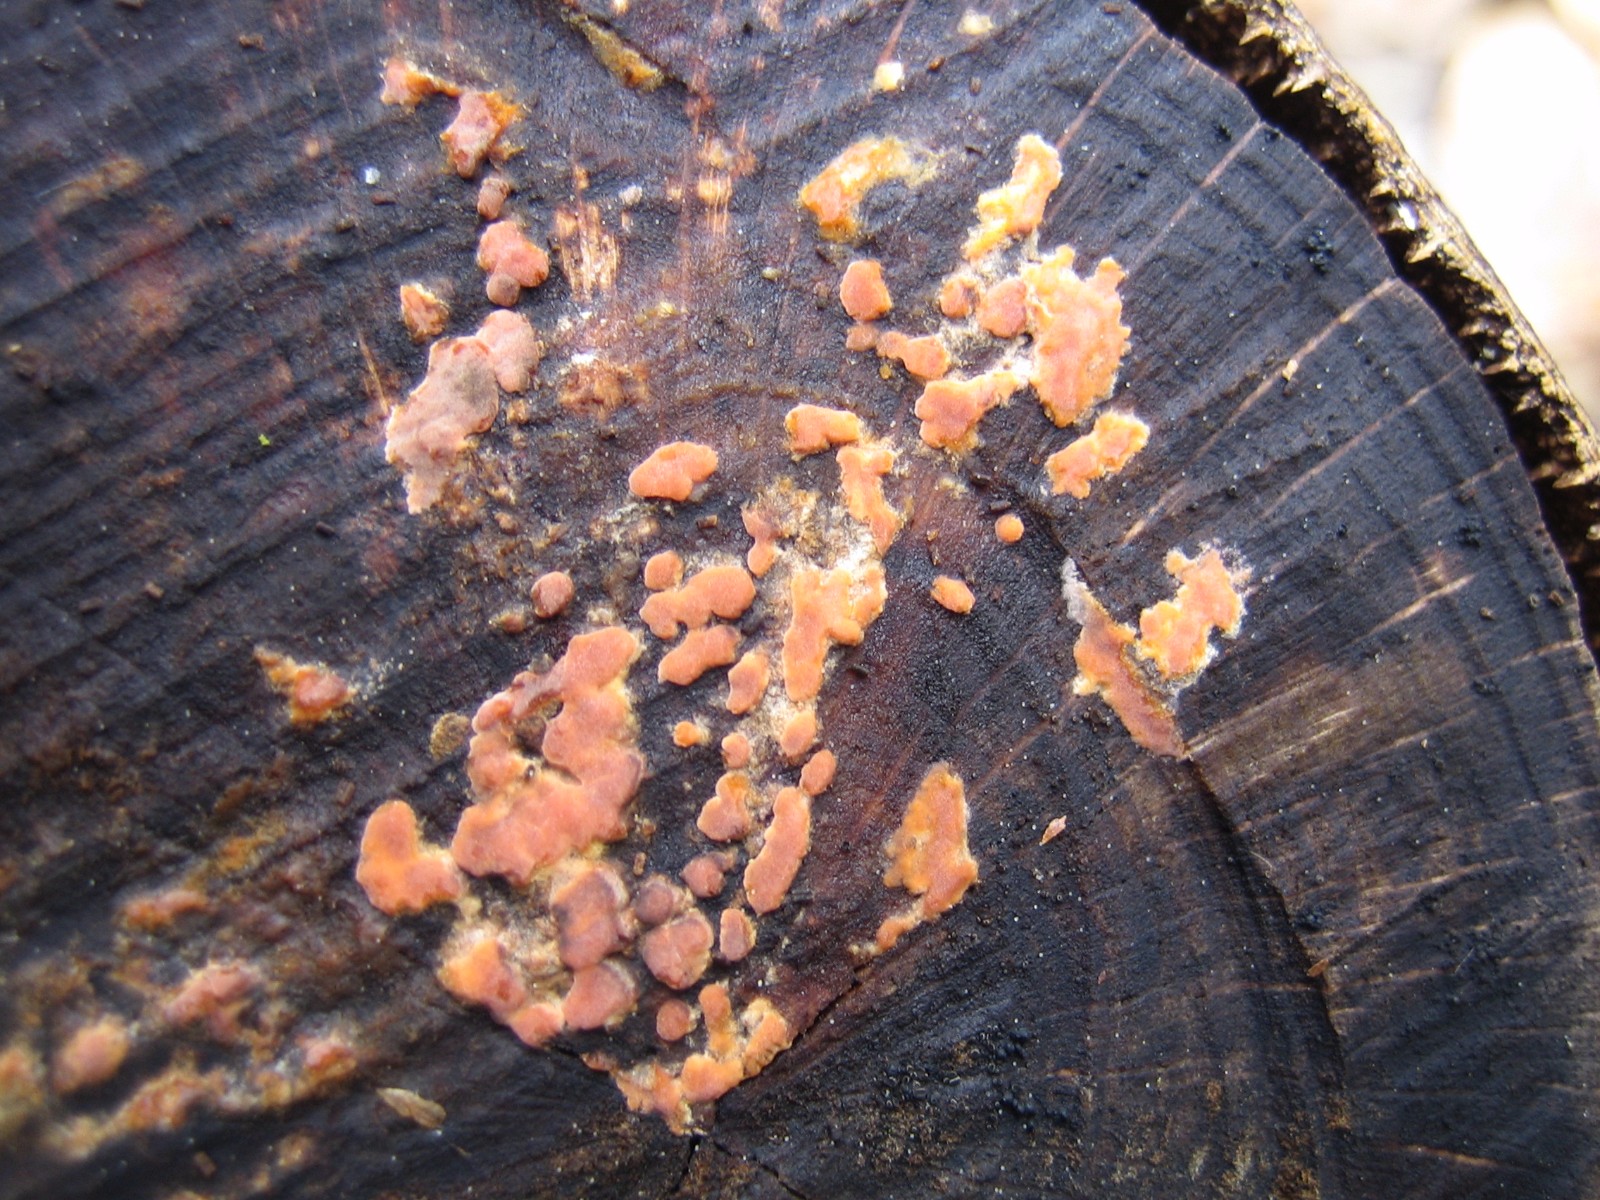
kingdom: Fungi
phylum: Basidiomycota
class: Agaricomycetes
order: Russulales
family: Peniophoraceae
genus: Peniophora
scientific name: Peniophora incarnata
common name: laksefarvet voksskind
